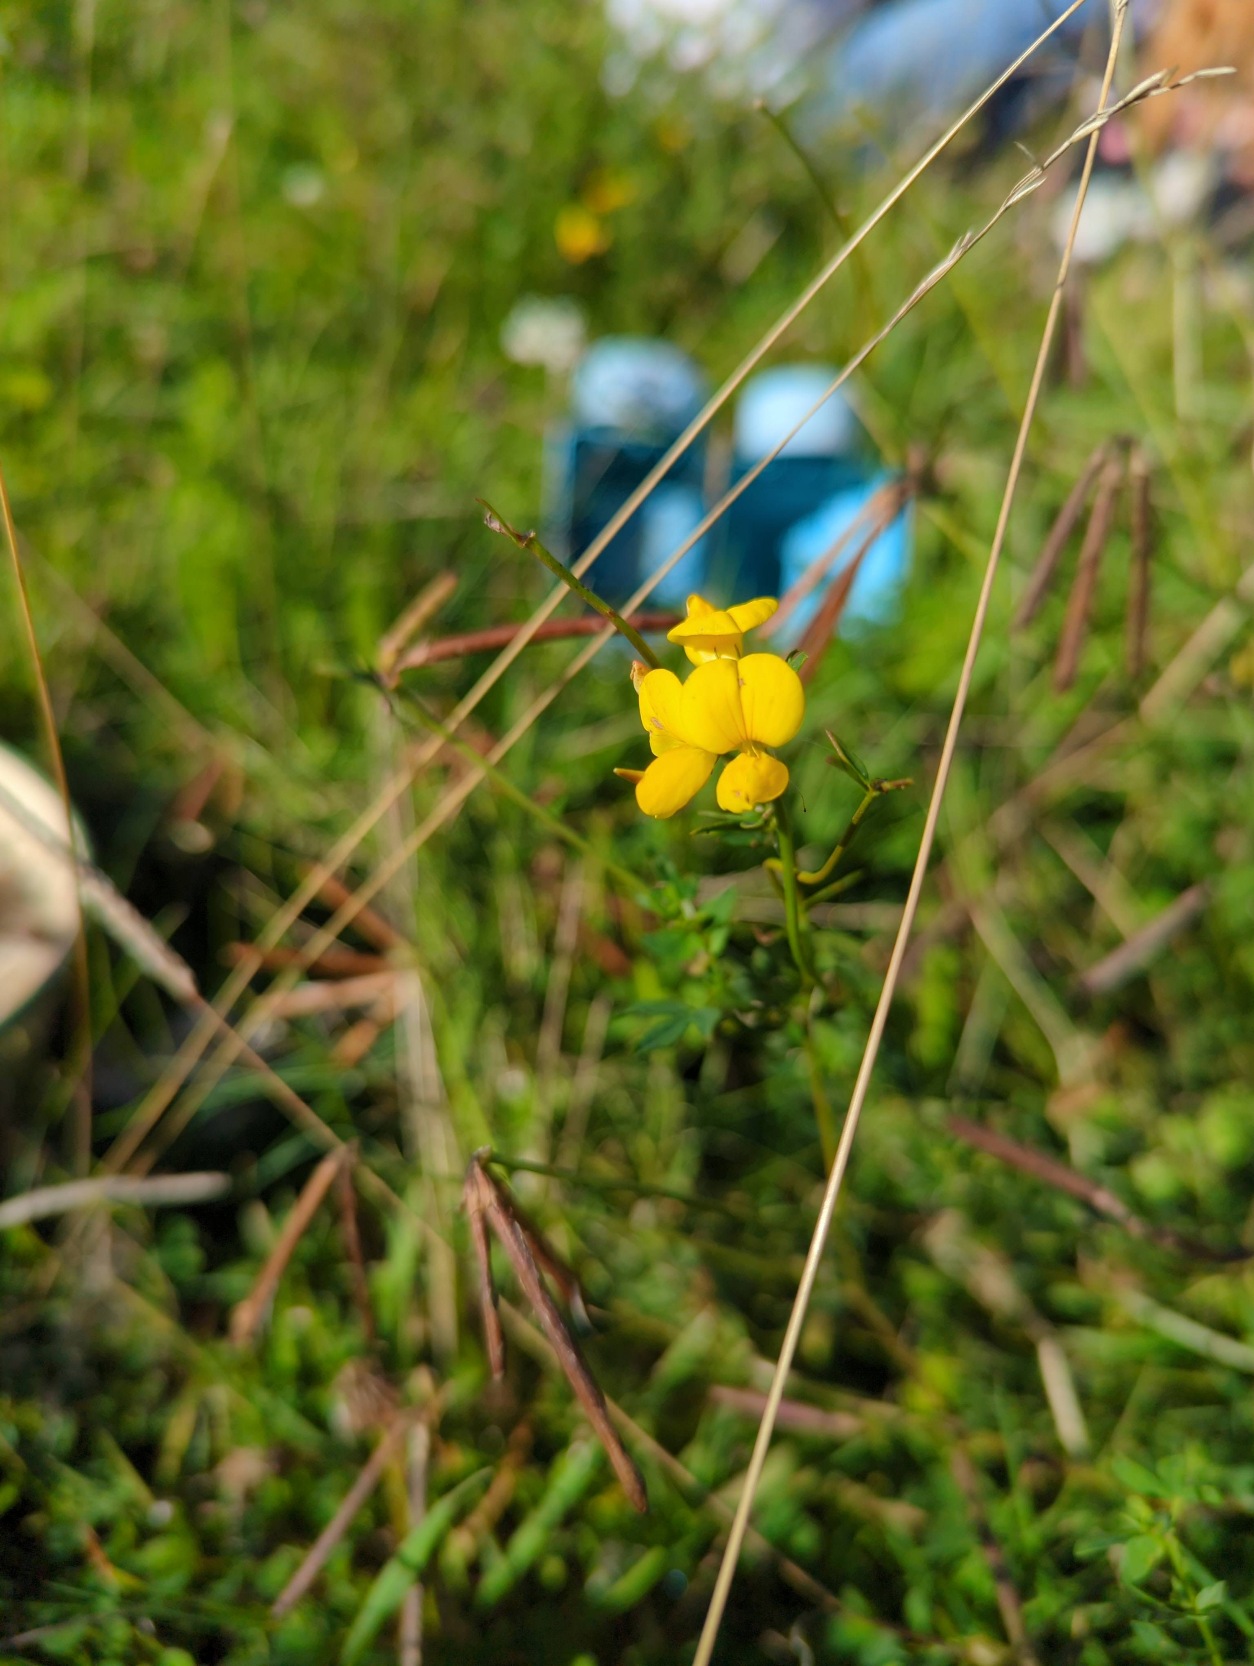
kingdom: Plantae
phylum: Tracheophyta
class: Magnoliopsida
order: Fabales
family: Fabaceae
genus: Lotus
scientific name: Lotus corniculatus
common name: Almindelig kællingetand
